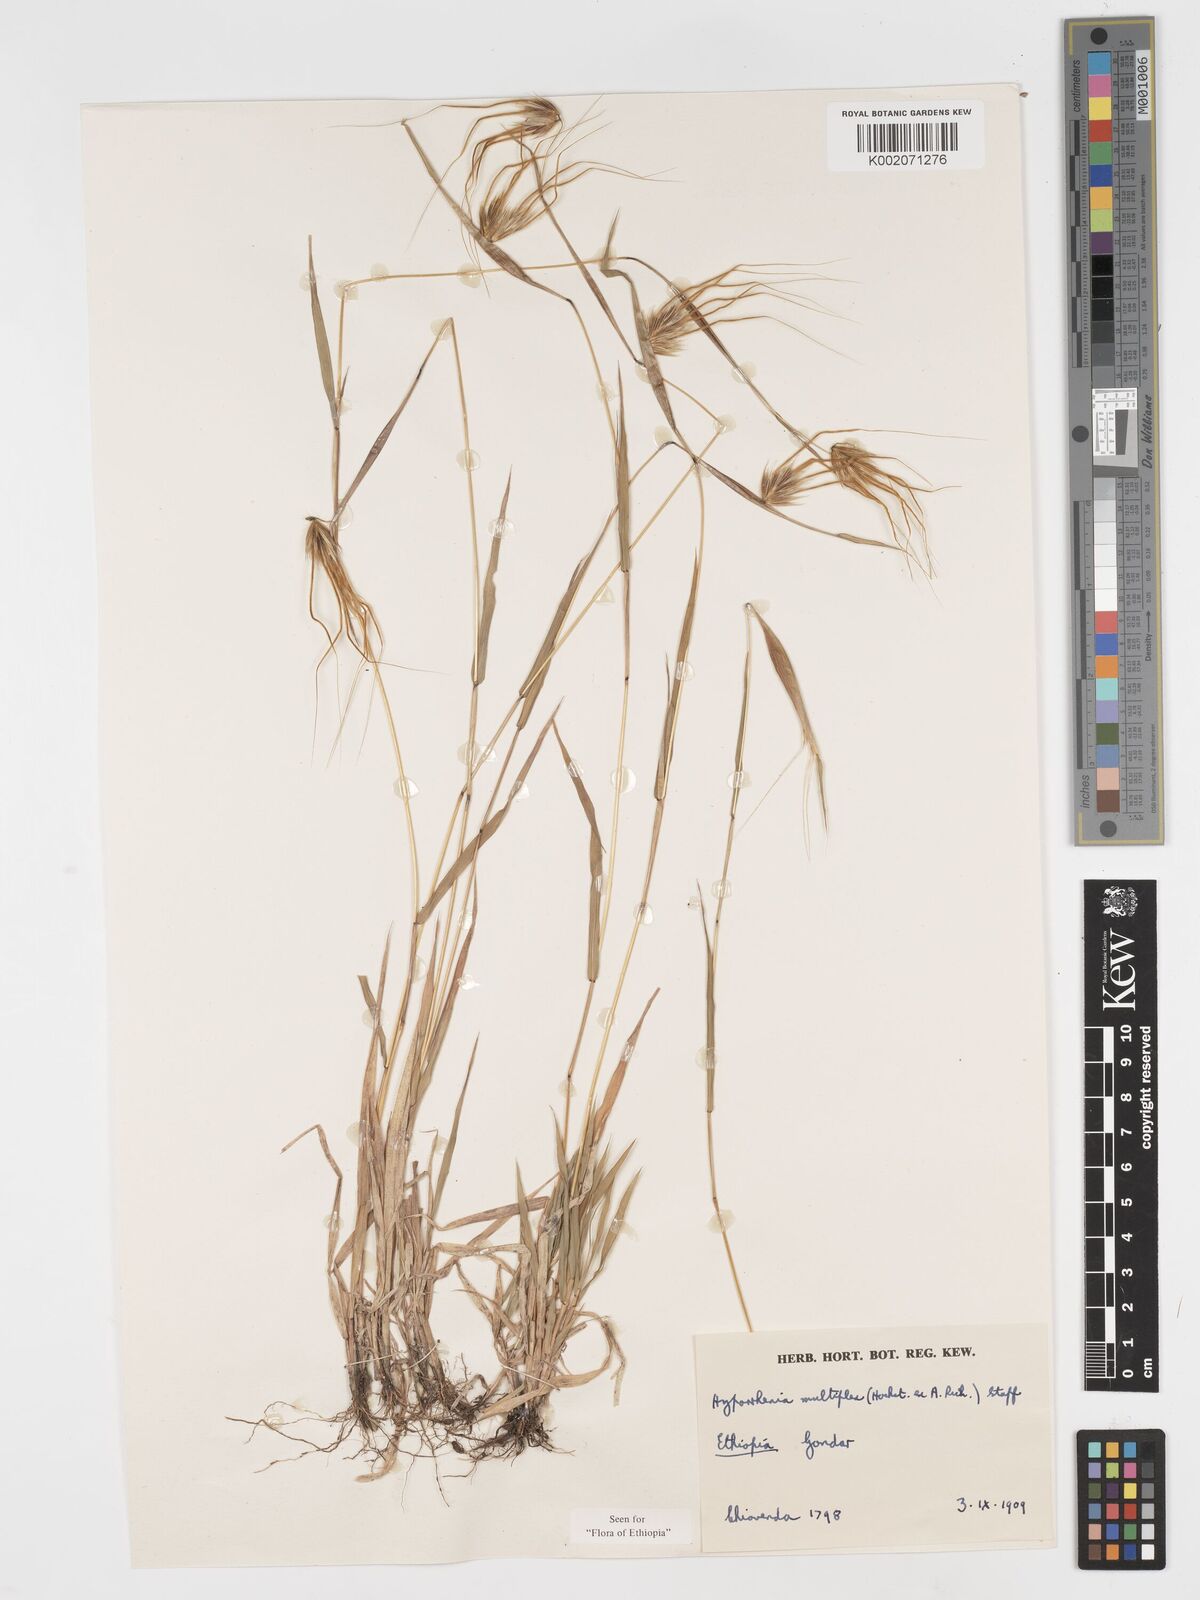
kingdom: Plantae
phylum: Tracheophyta
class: Liliopsida
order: Poales
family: Poaceae
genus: Hyparrhenia
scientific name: Hyparrhenia multiplex
